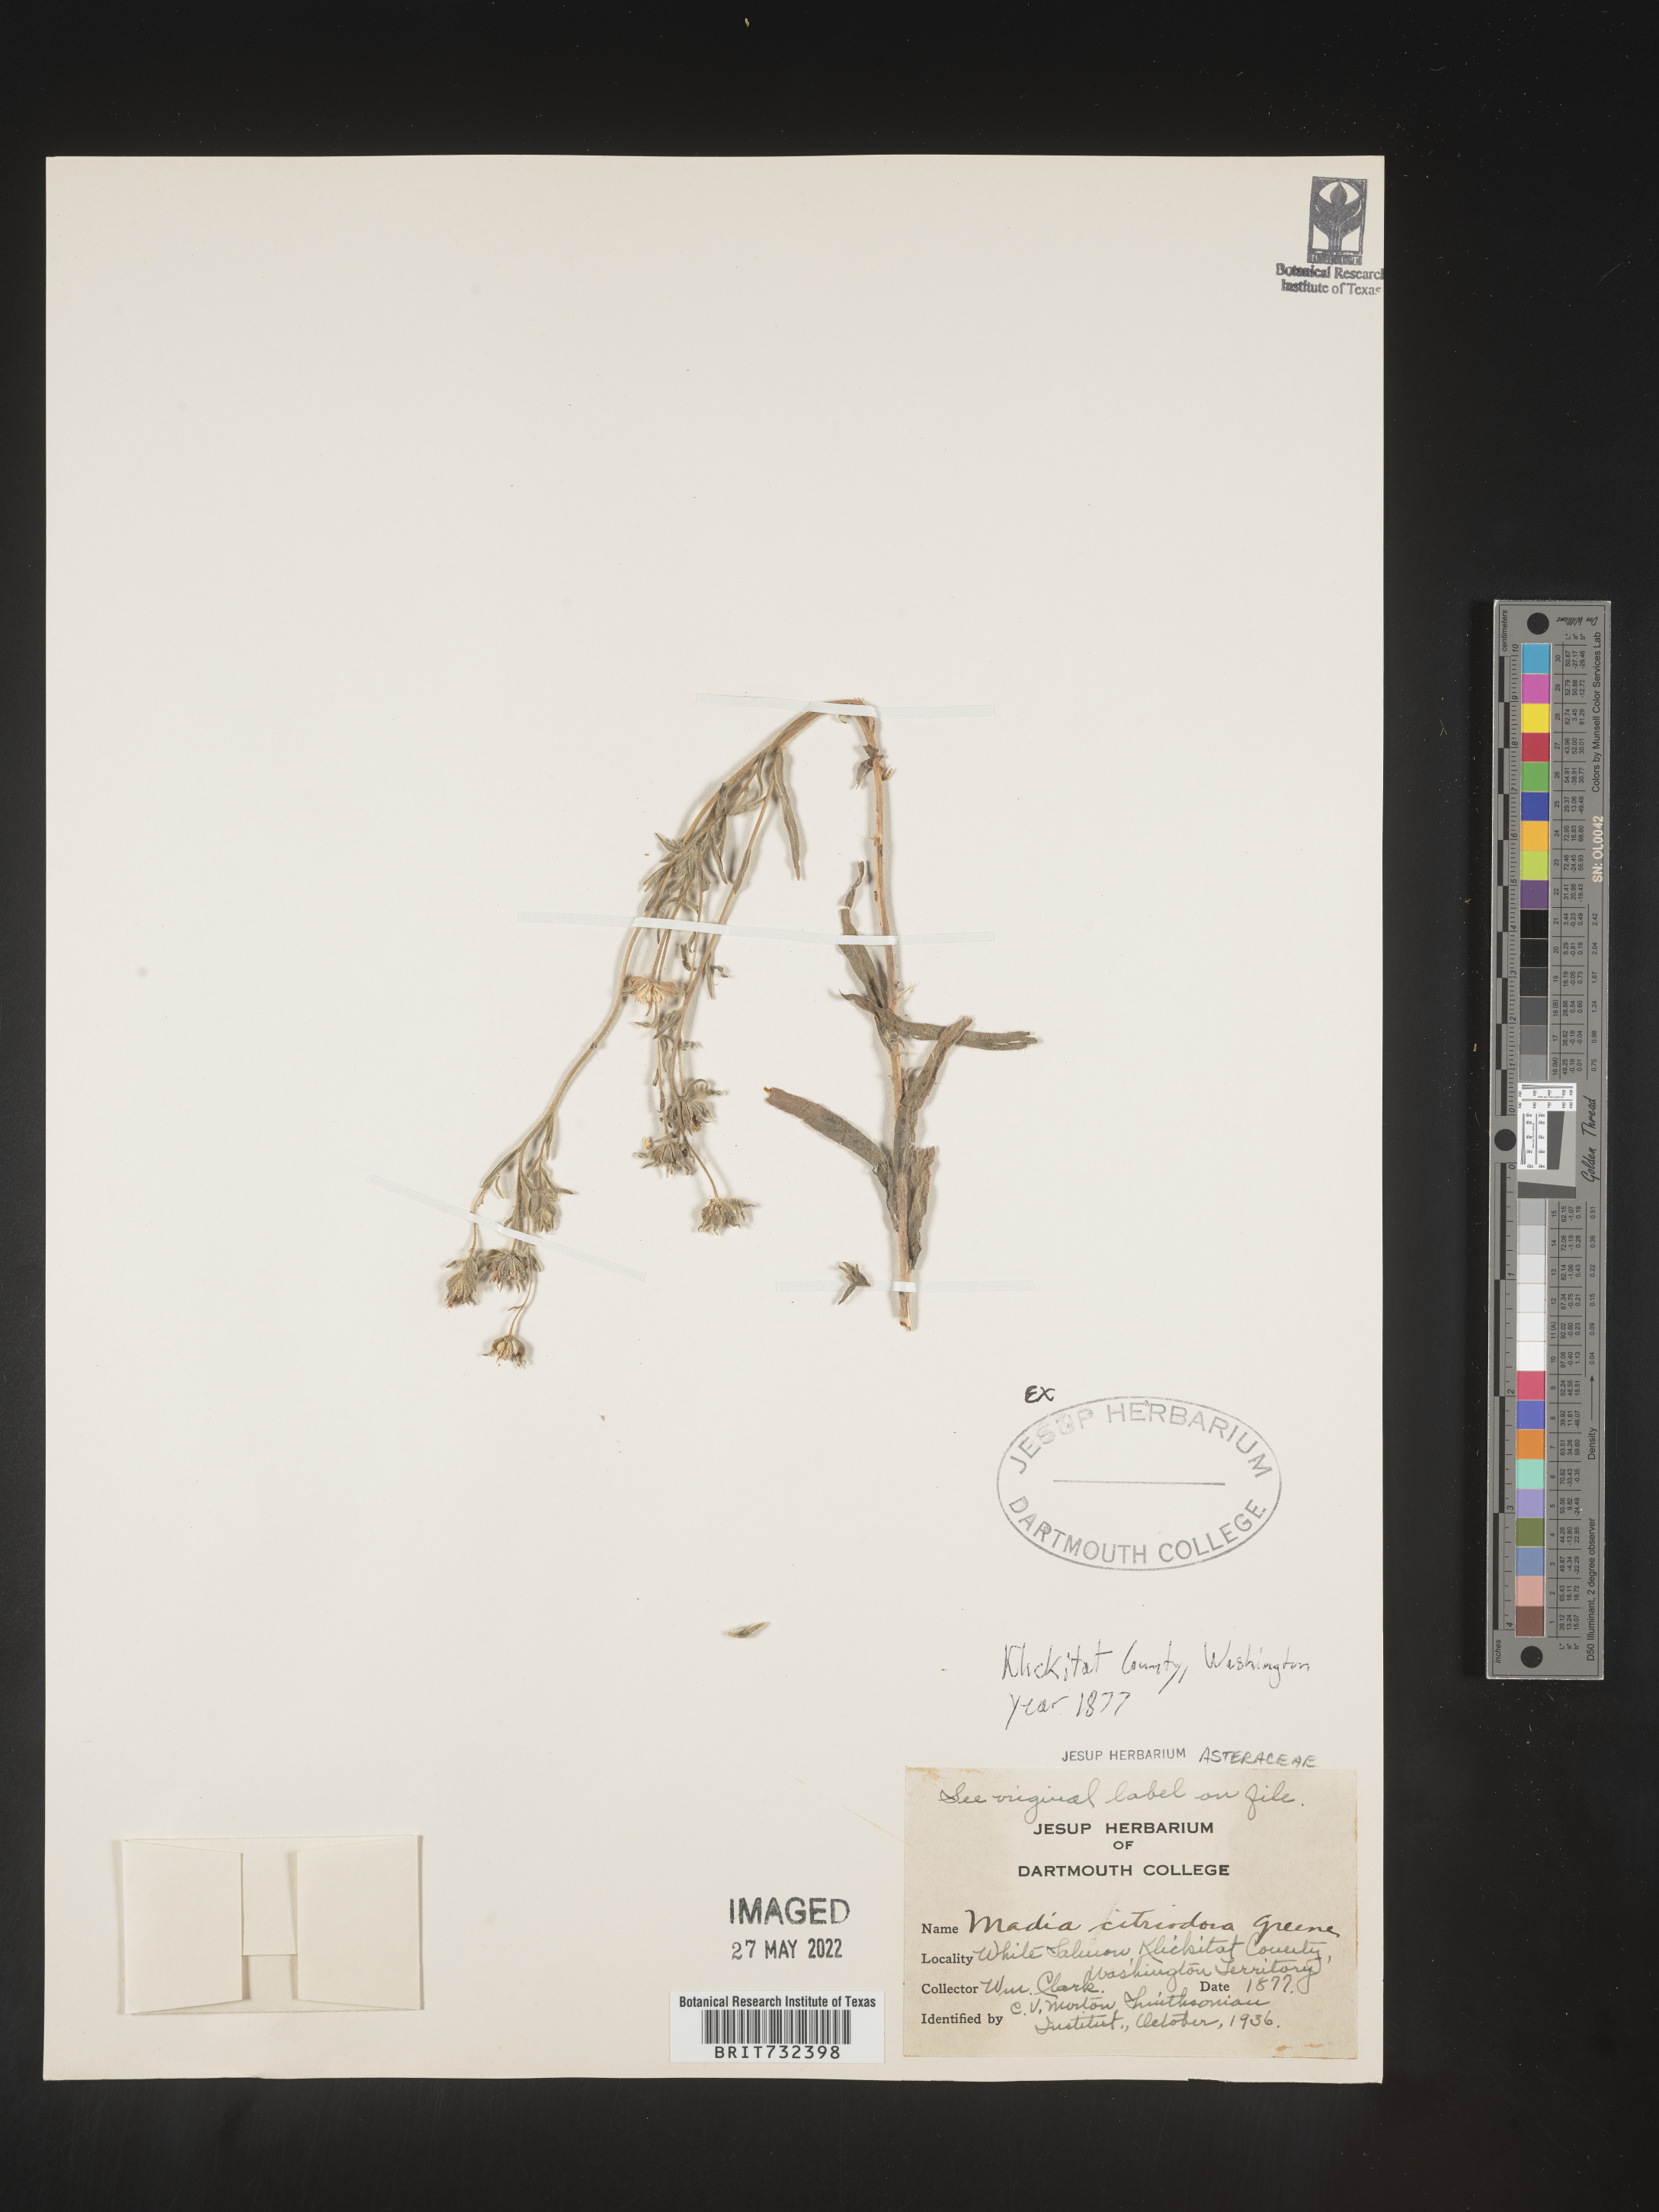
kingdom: Plantae
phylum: Tracheophyta
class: Magnoliopsida
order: Asterales
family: Asteraceae
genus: Madia
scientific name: Madia citriodora
